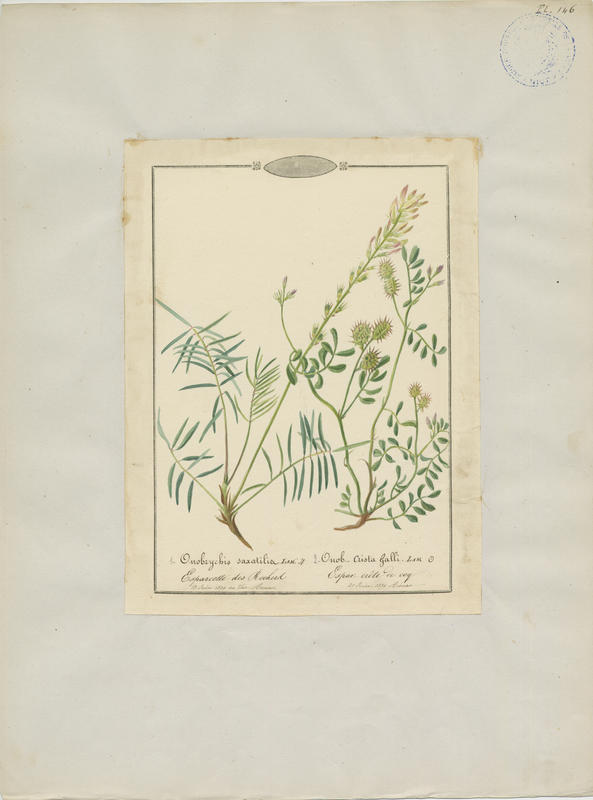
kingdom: Plantae
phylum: Tracheophyta
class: Magnoliopsida
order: Fabales
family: Fabaceae
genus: Onobrychis
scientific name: Onobrychis crista-galli
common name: Cockscomb sainfoin
